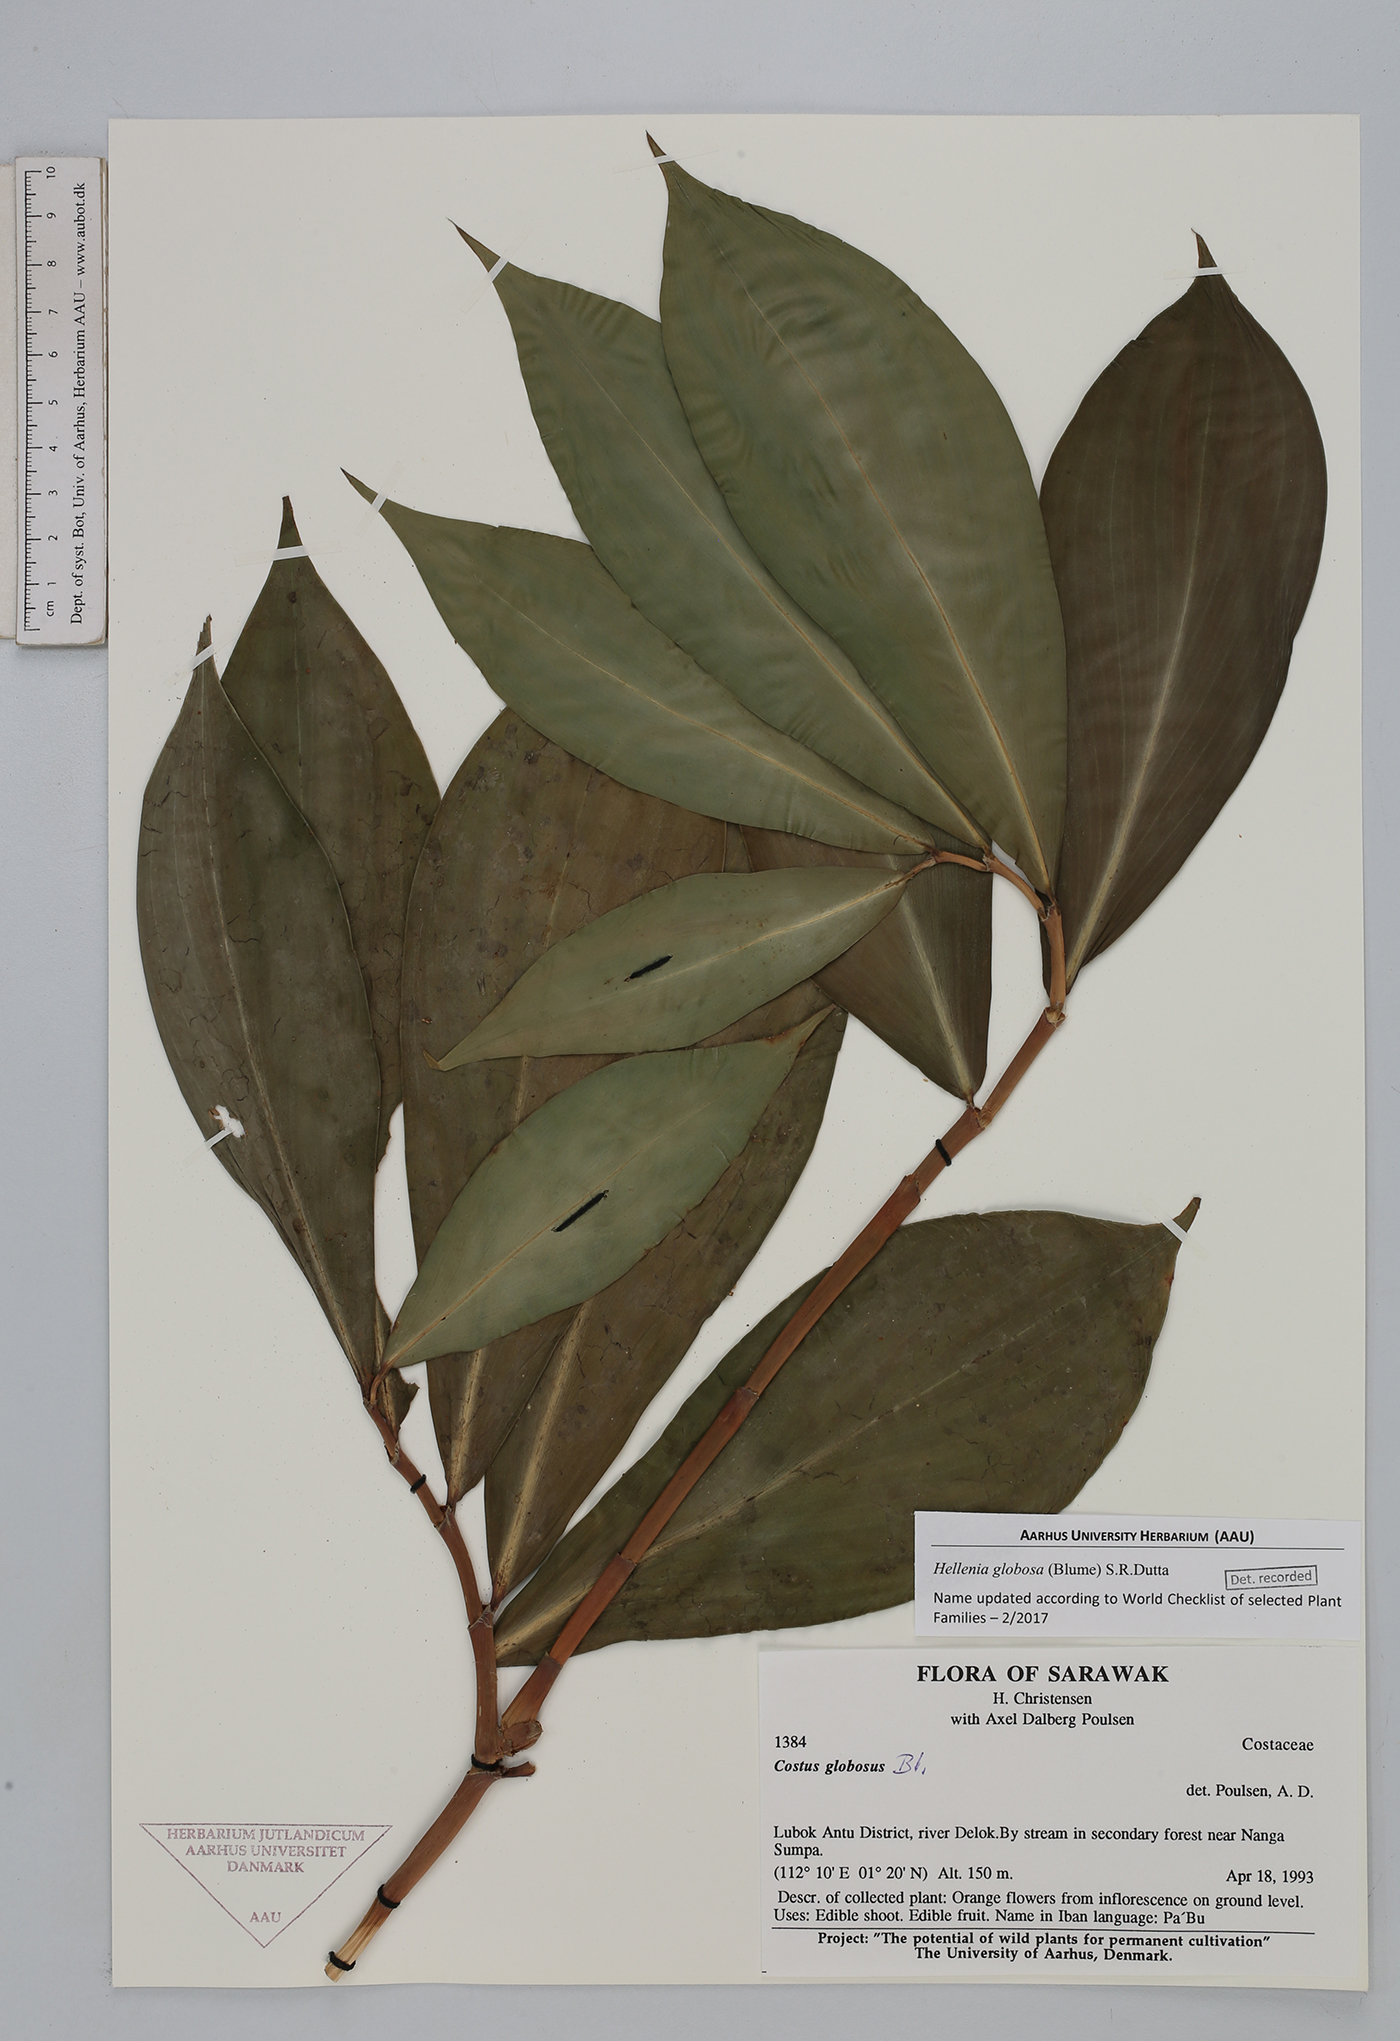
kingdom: Plantae
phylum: Tracheophyta
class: Liliopsida
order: Zingiberales
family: Costaceae
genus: Hellenia
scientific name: Hellenia globosa
